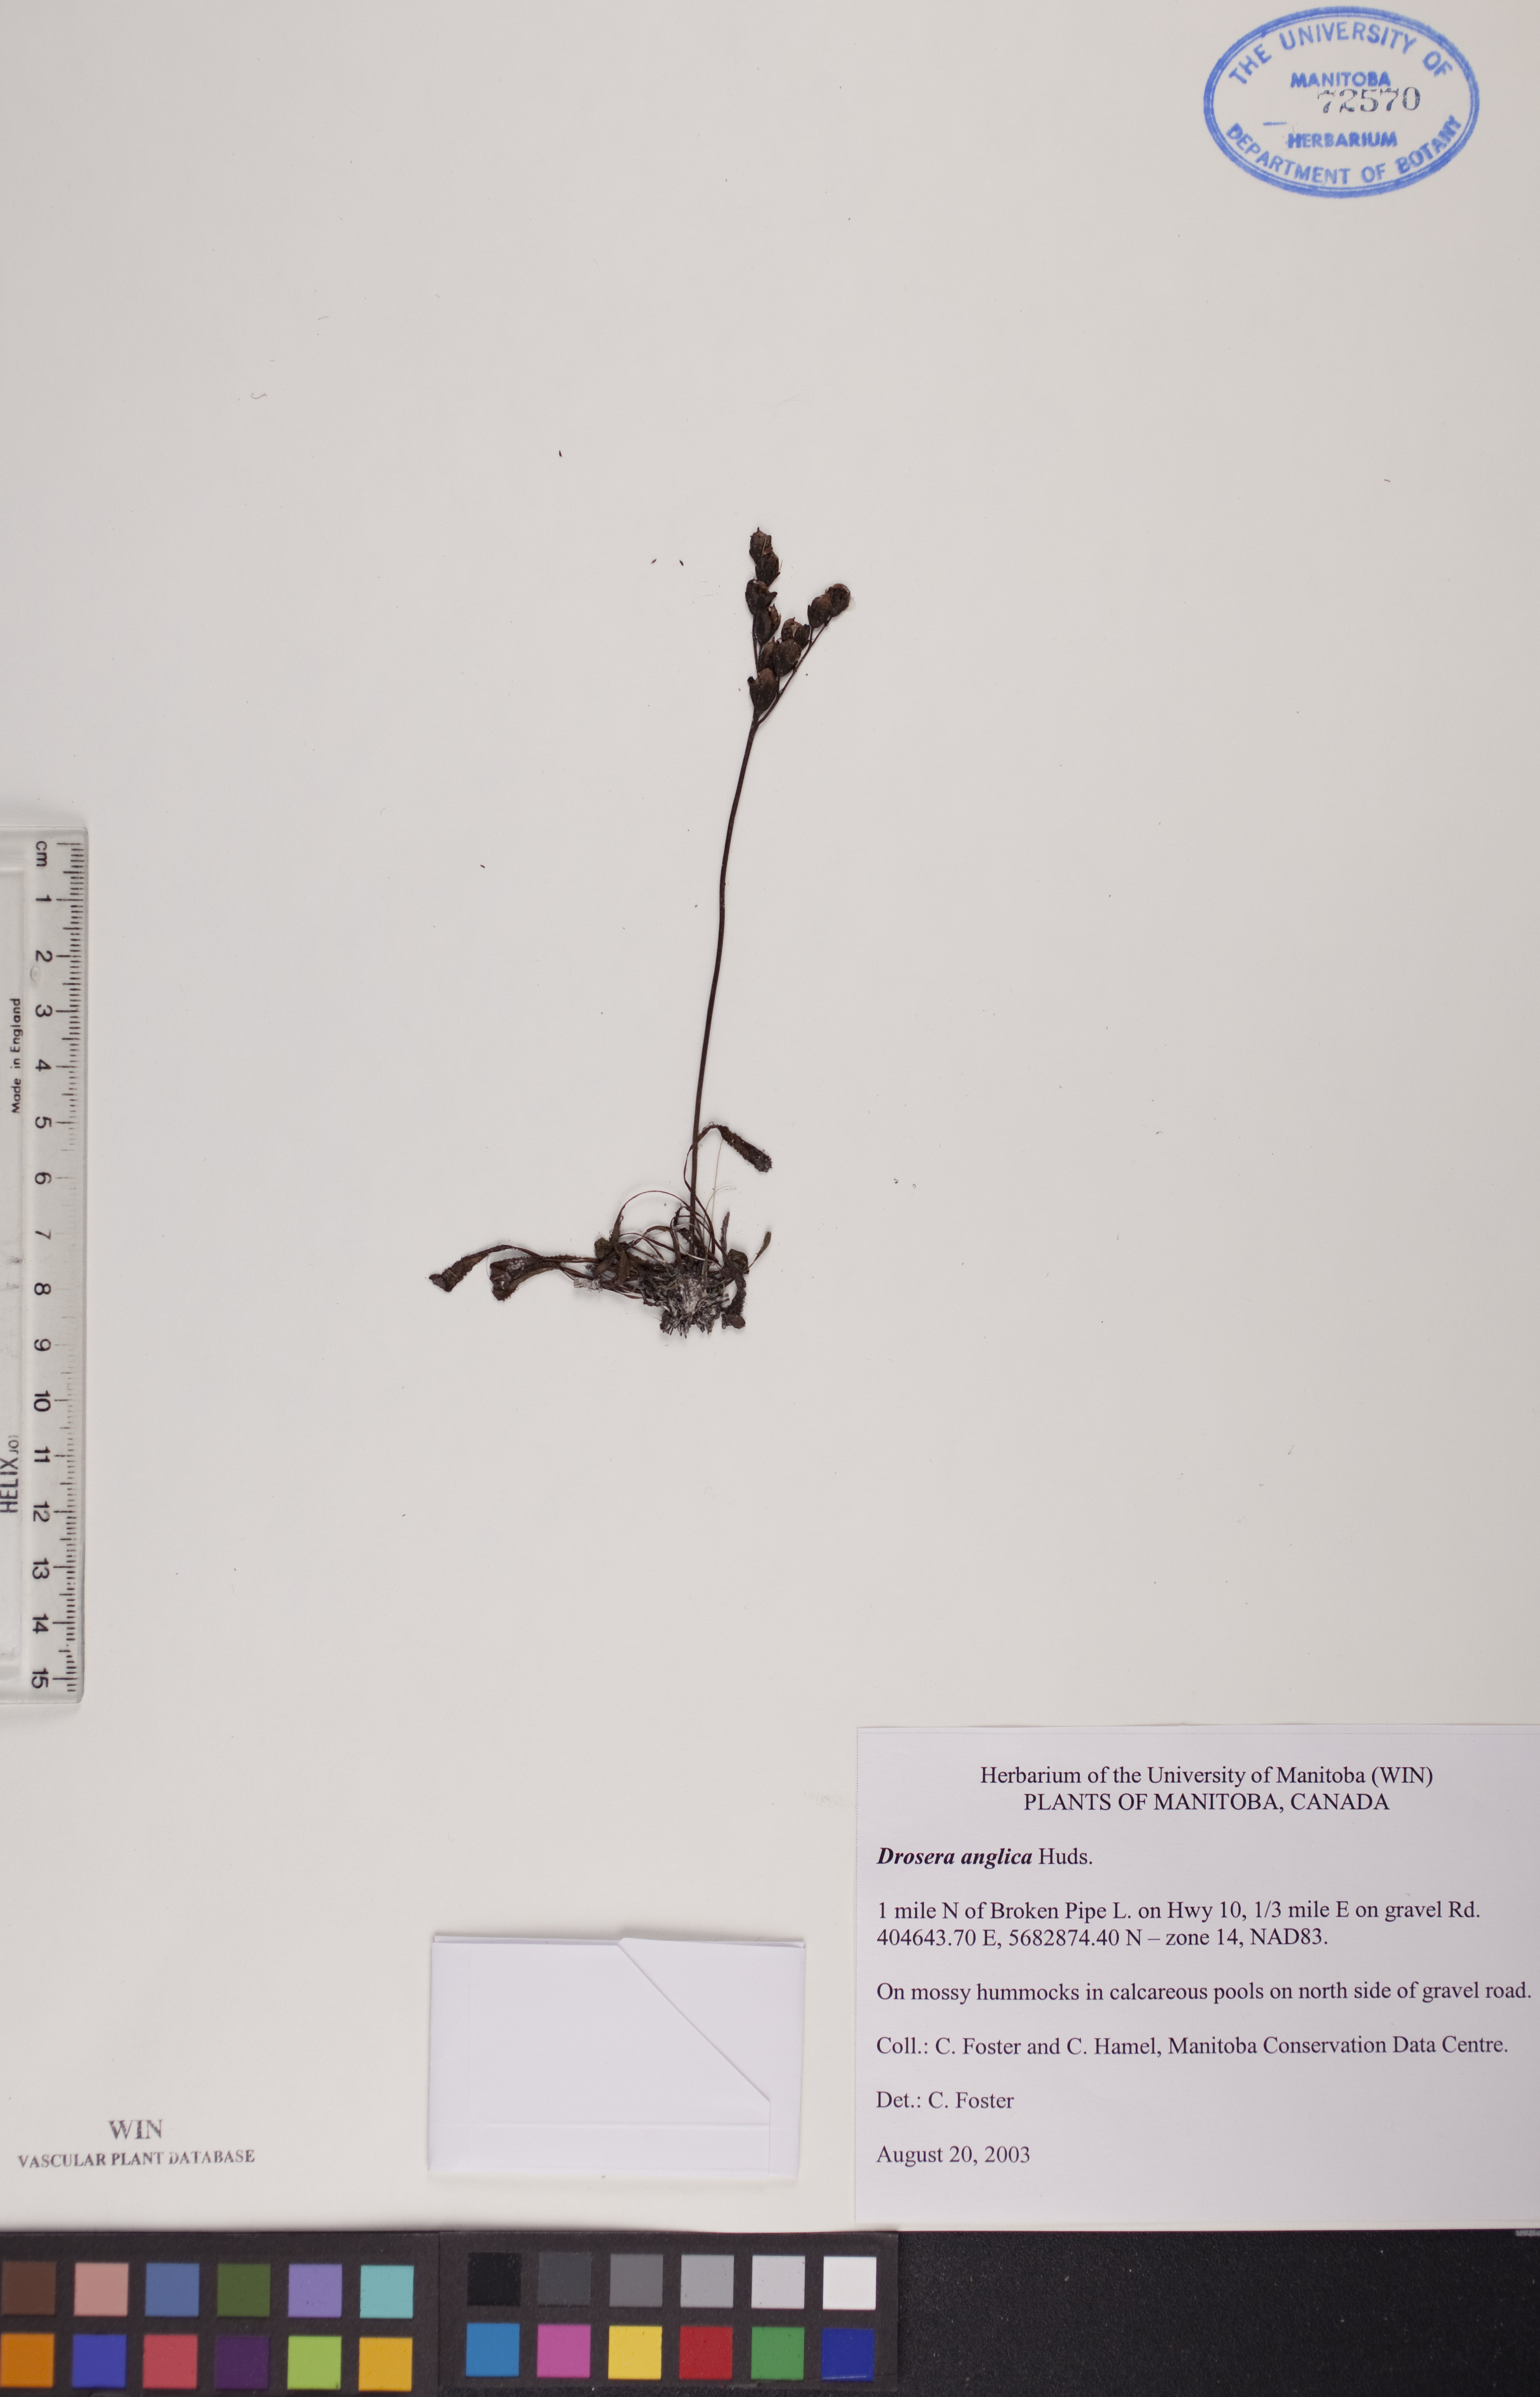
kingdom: Plantae
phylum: Tracheophyta
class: Magnoliopsida
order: Caryophyllales
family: Droseraceae
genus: Drosera
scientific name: Drosera anglica
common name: Great sundew
